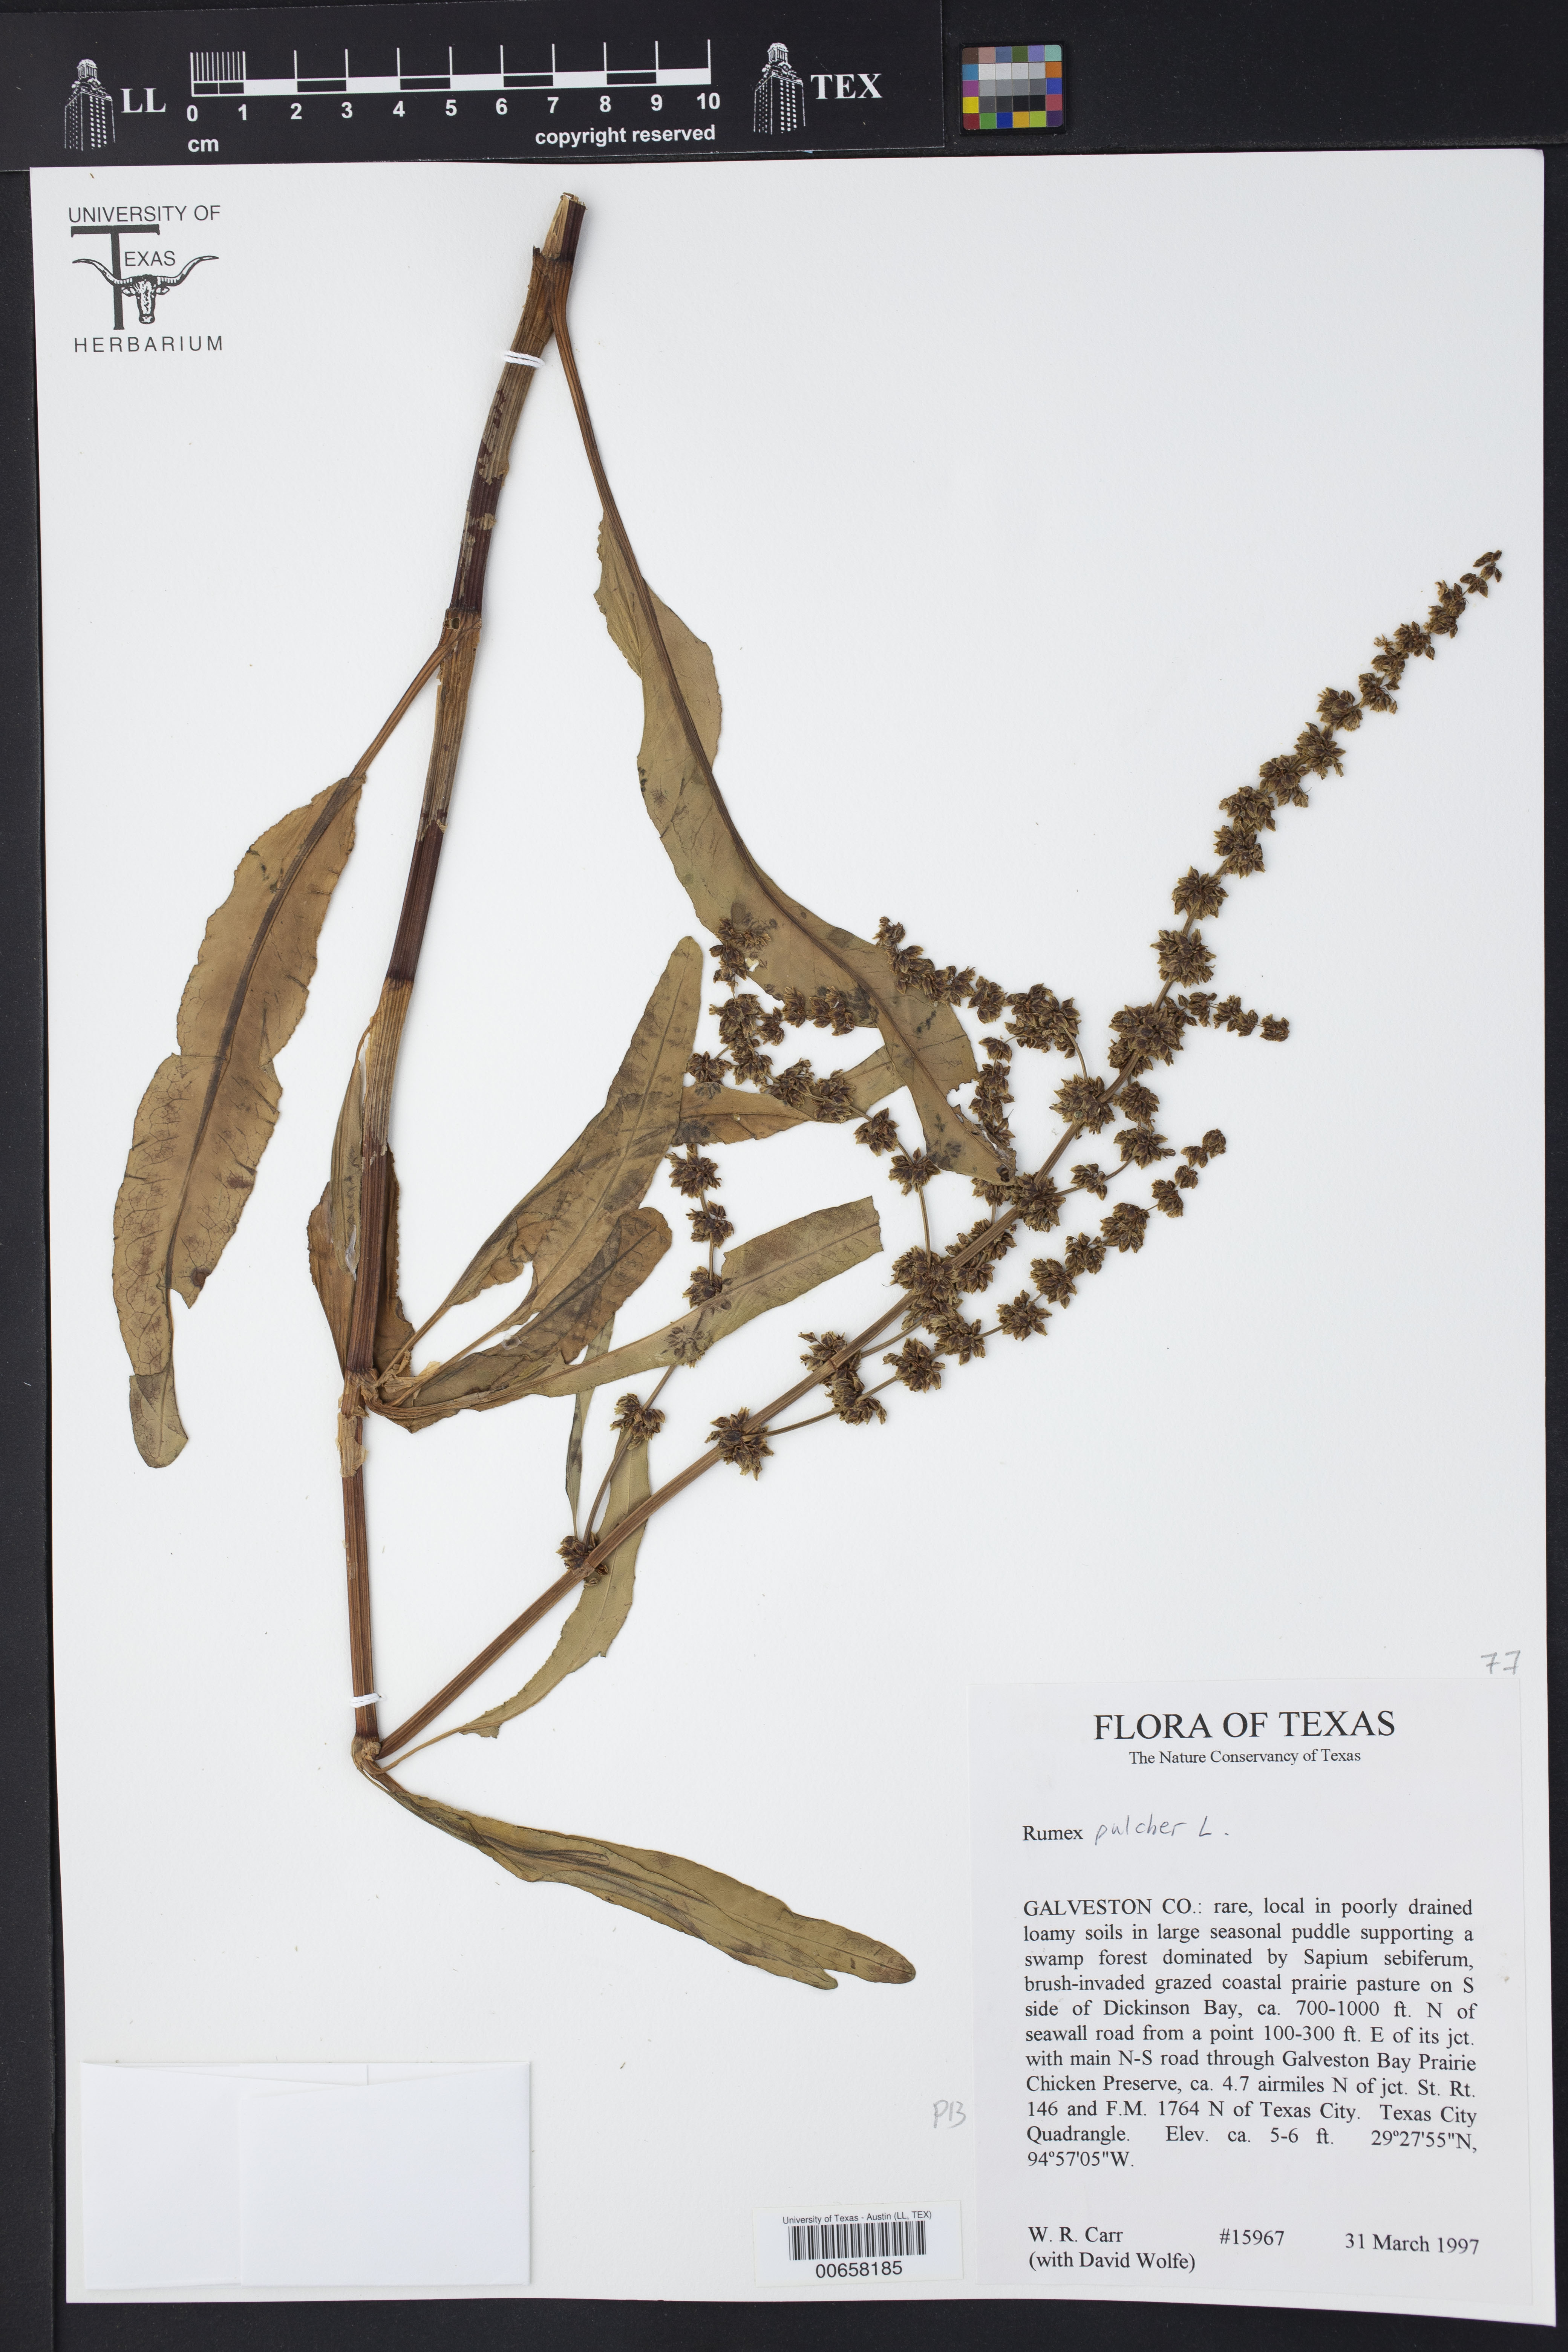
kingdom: Plantae
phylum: Tracheophyta
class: Magnoliopsida
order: Caryophyllales
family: Polygonaceae
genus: Rumex
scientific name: Rumex pulcher
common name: Fiddle dock
